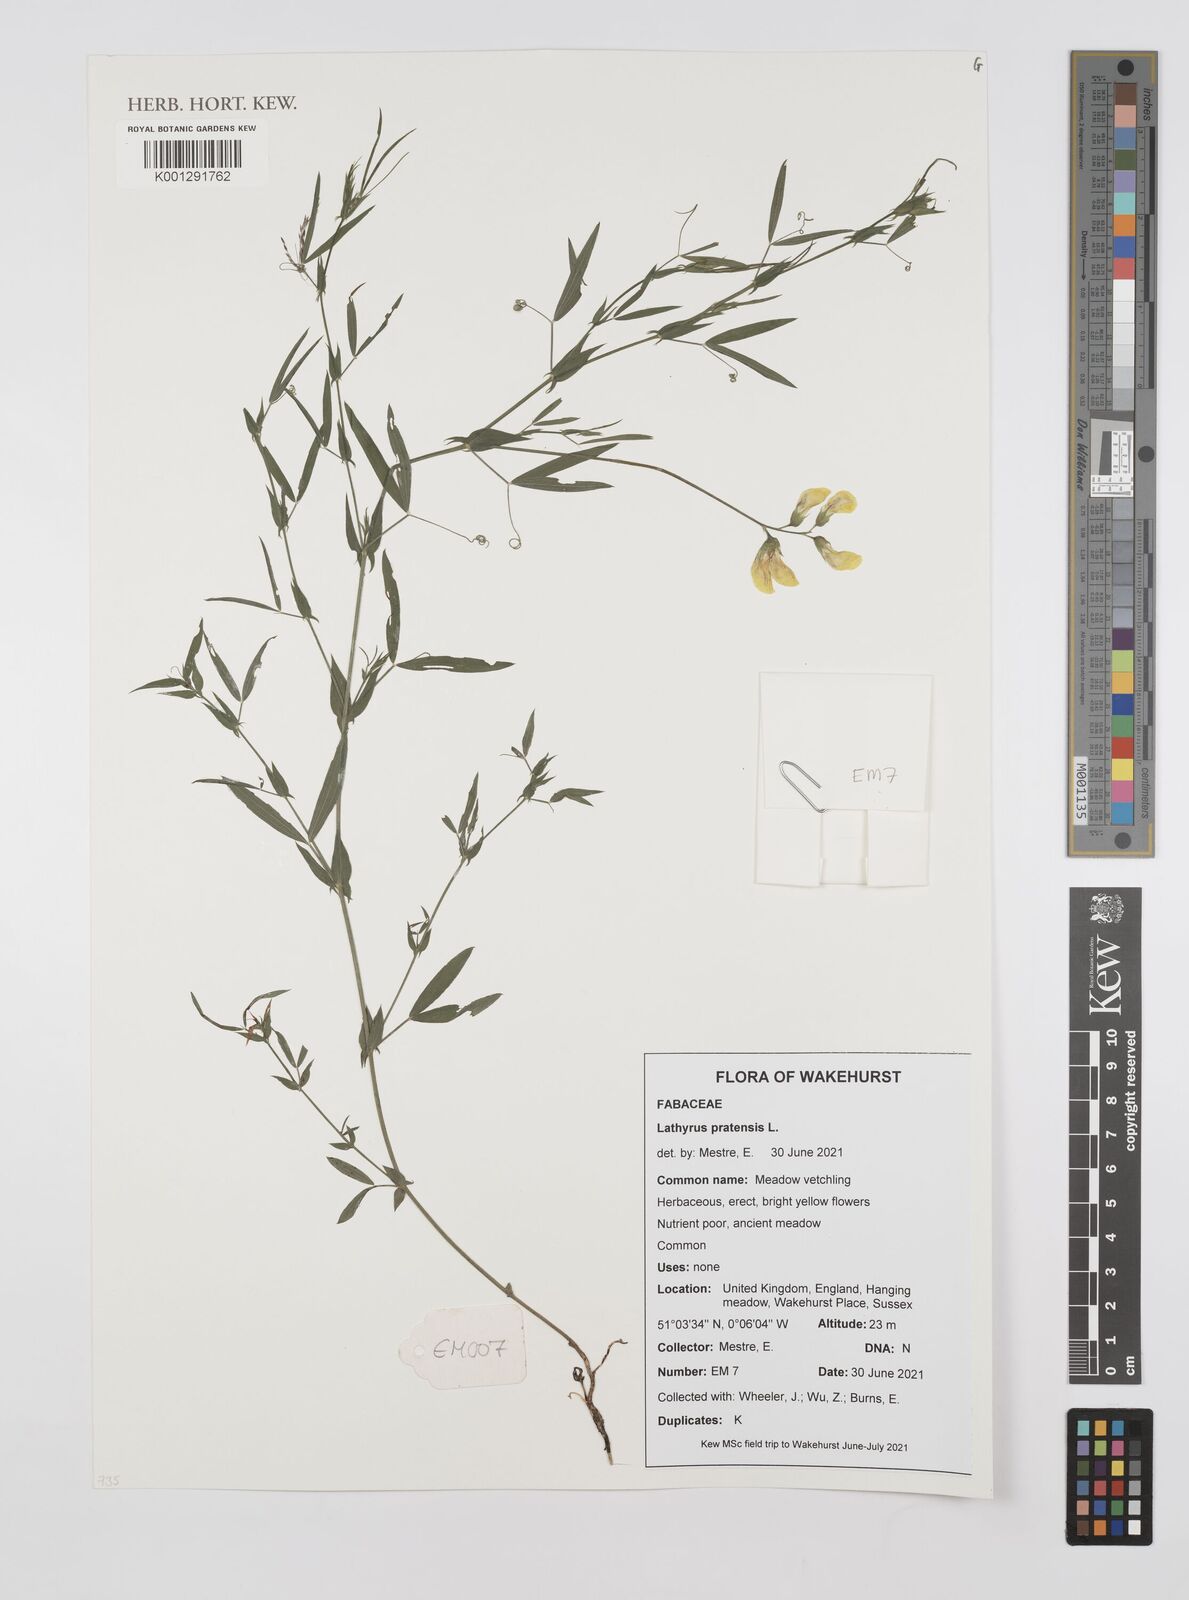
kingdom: Plantae
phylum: Tracheophyta
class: Magnoliopsida
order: Fabales
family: Fabaceae
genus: Lathyrus
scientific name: Lathyrus pratensis
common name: Meadow vetchling
